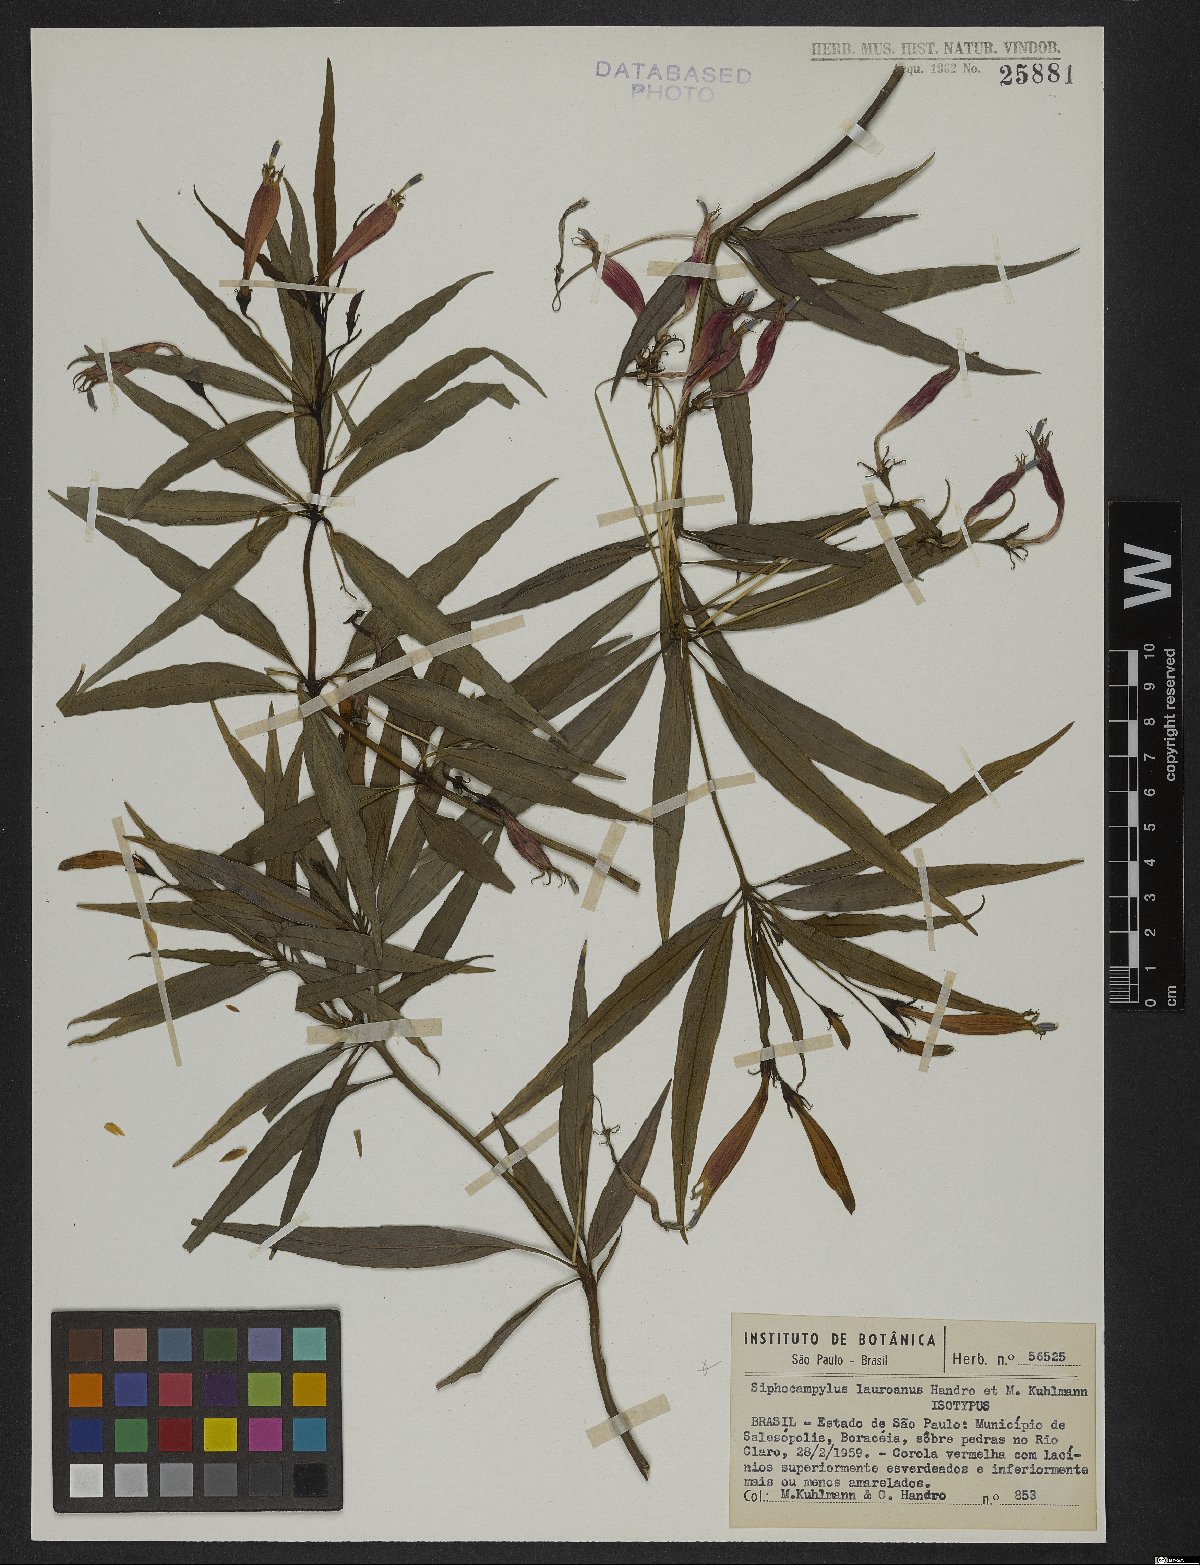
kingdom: Plantae
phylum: Tracheophyta
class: Magnoliopsida
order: Asterales
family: Campanulaceae
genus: Siphocampylus
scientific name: Siphocampylus lauroanus
